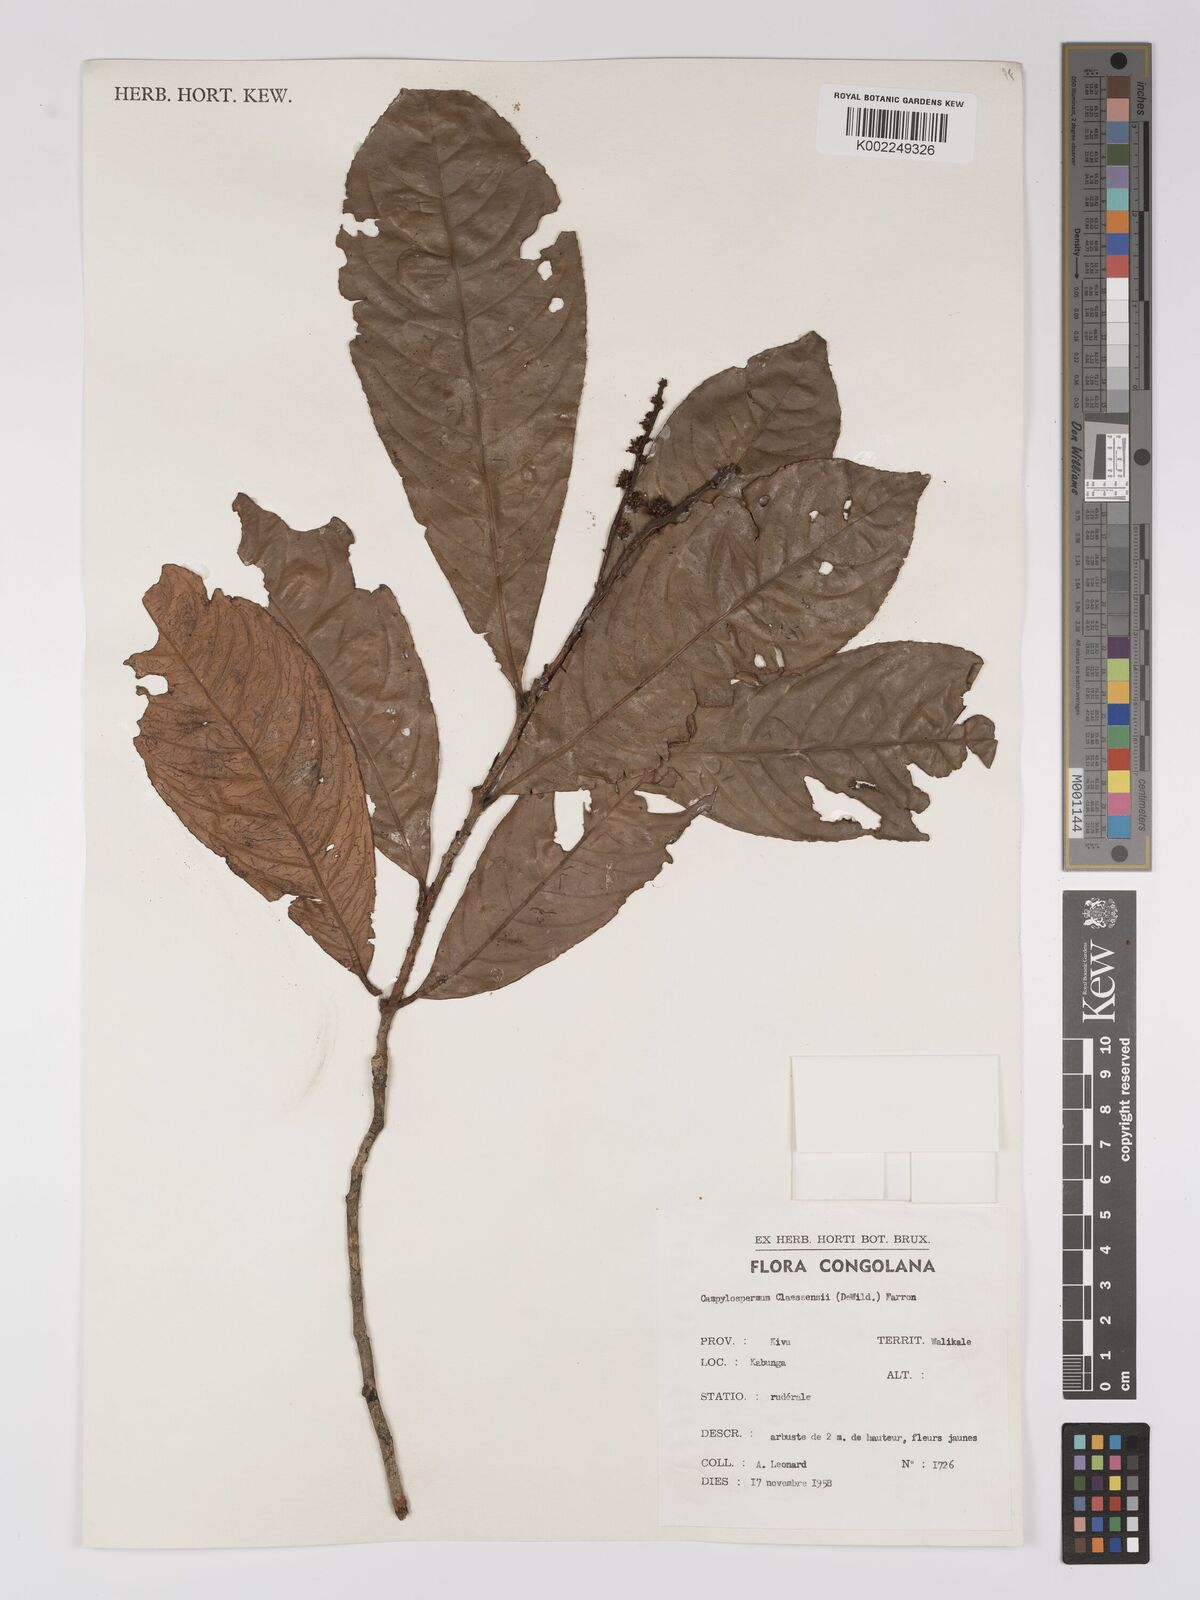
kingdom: Plantae
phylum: Tracheophyta
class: Magnoliopsida
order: Malpighiales
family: Ochnaceae
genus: Campylospermum
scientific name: Campylospermum claessensii
